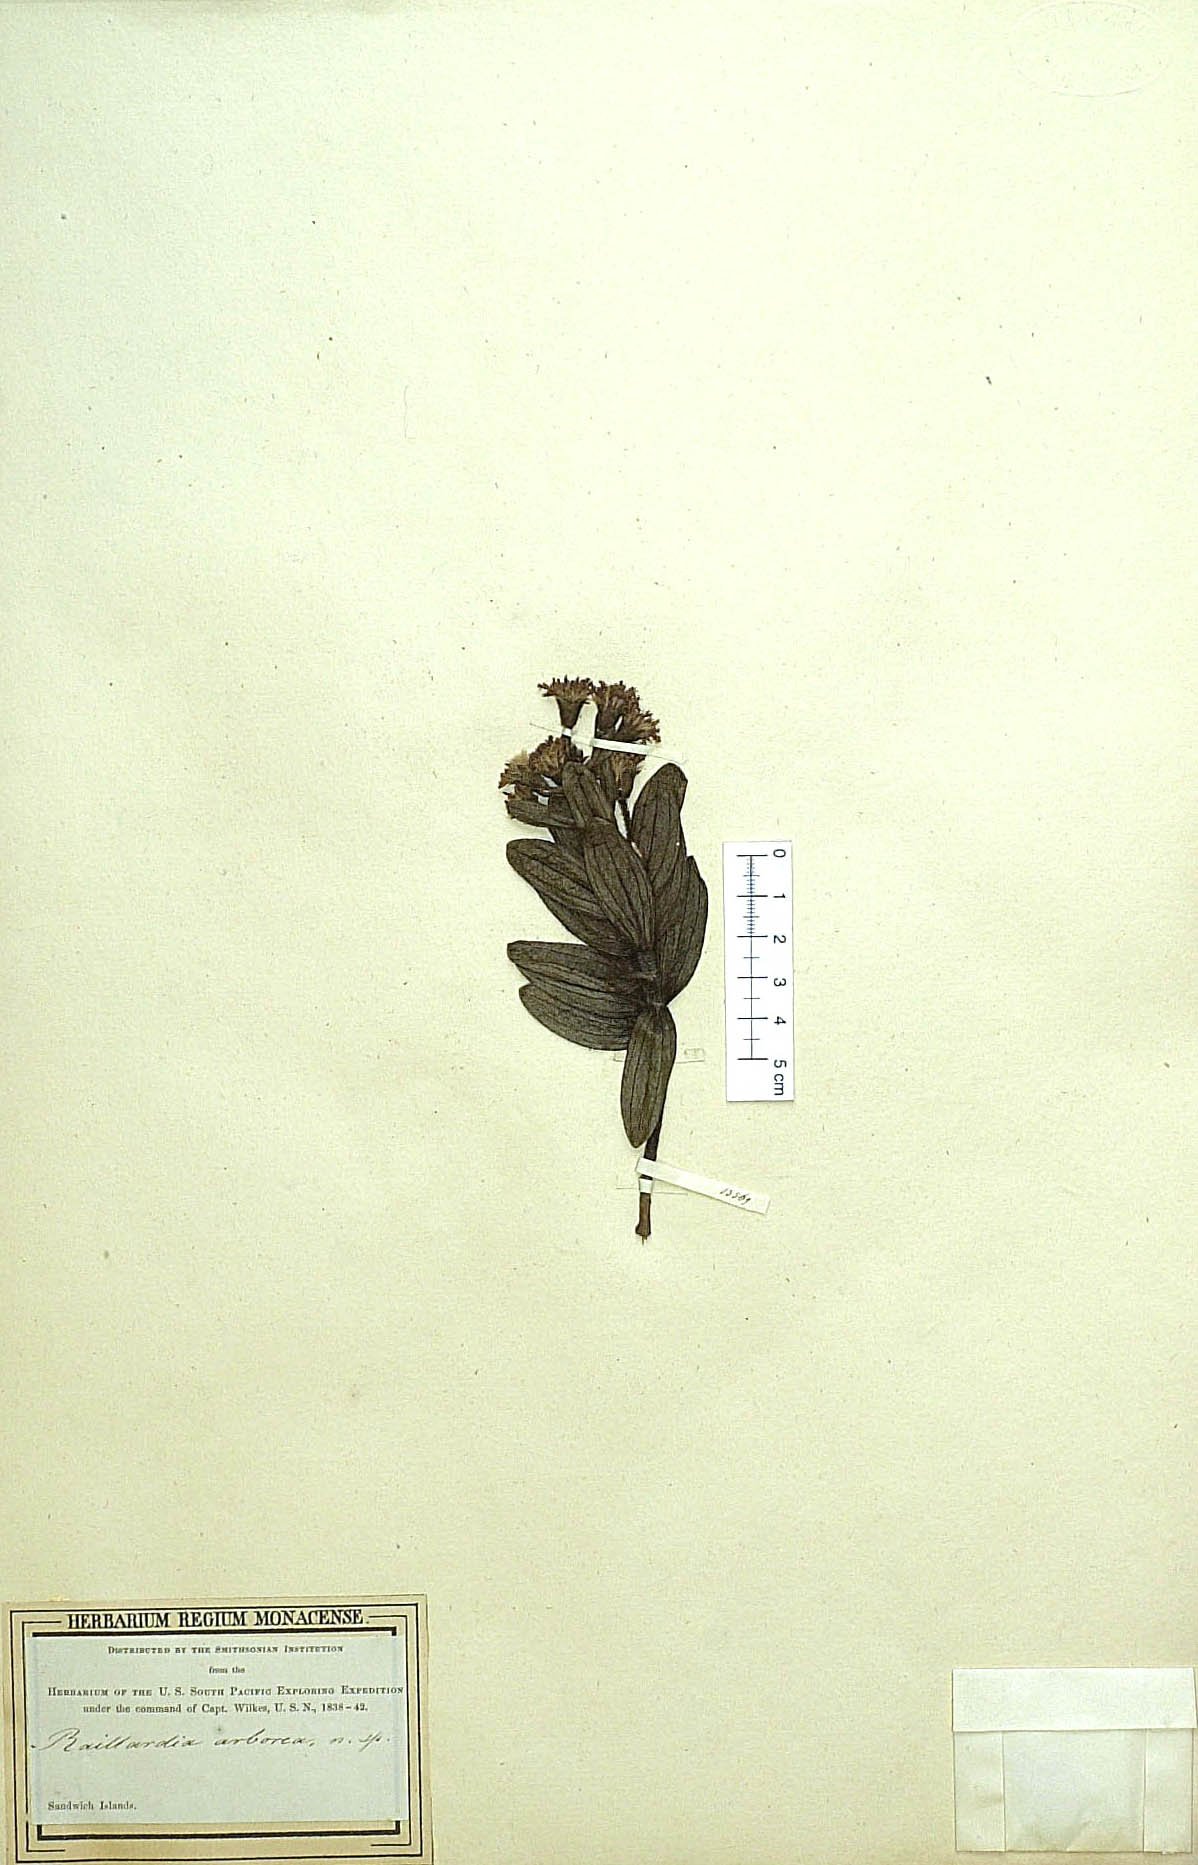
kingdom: Plantae
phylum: Tracheophyta
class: Magnoliopsida
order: Asterales
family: Asteraceae
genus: Dubautia
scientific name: Dubautia arborea
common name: Tree dubautia
